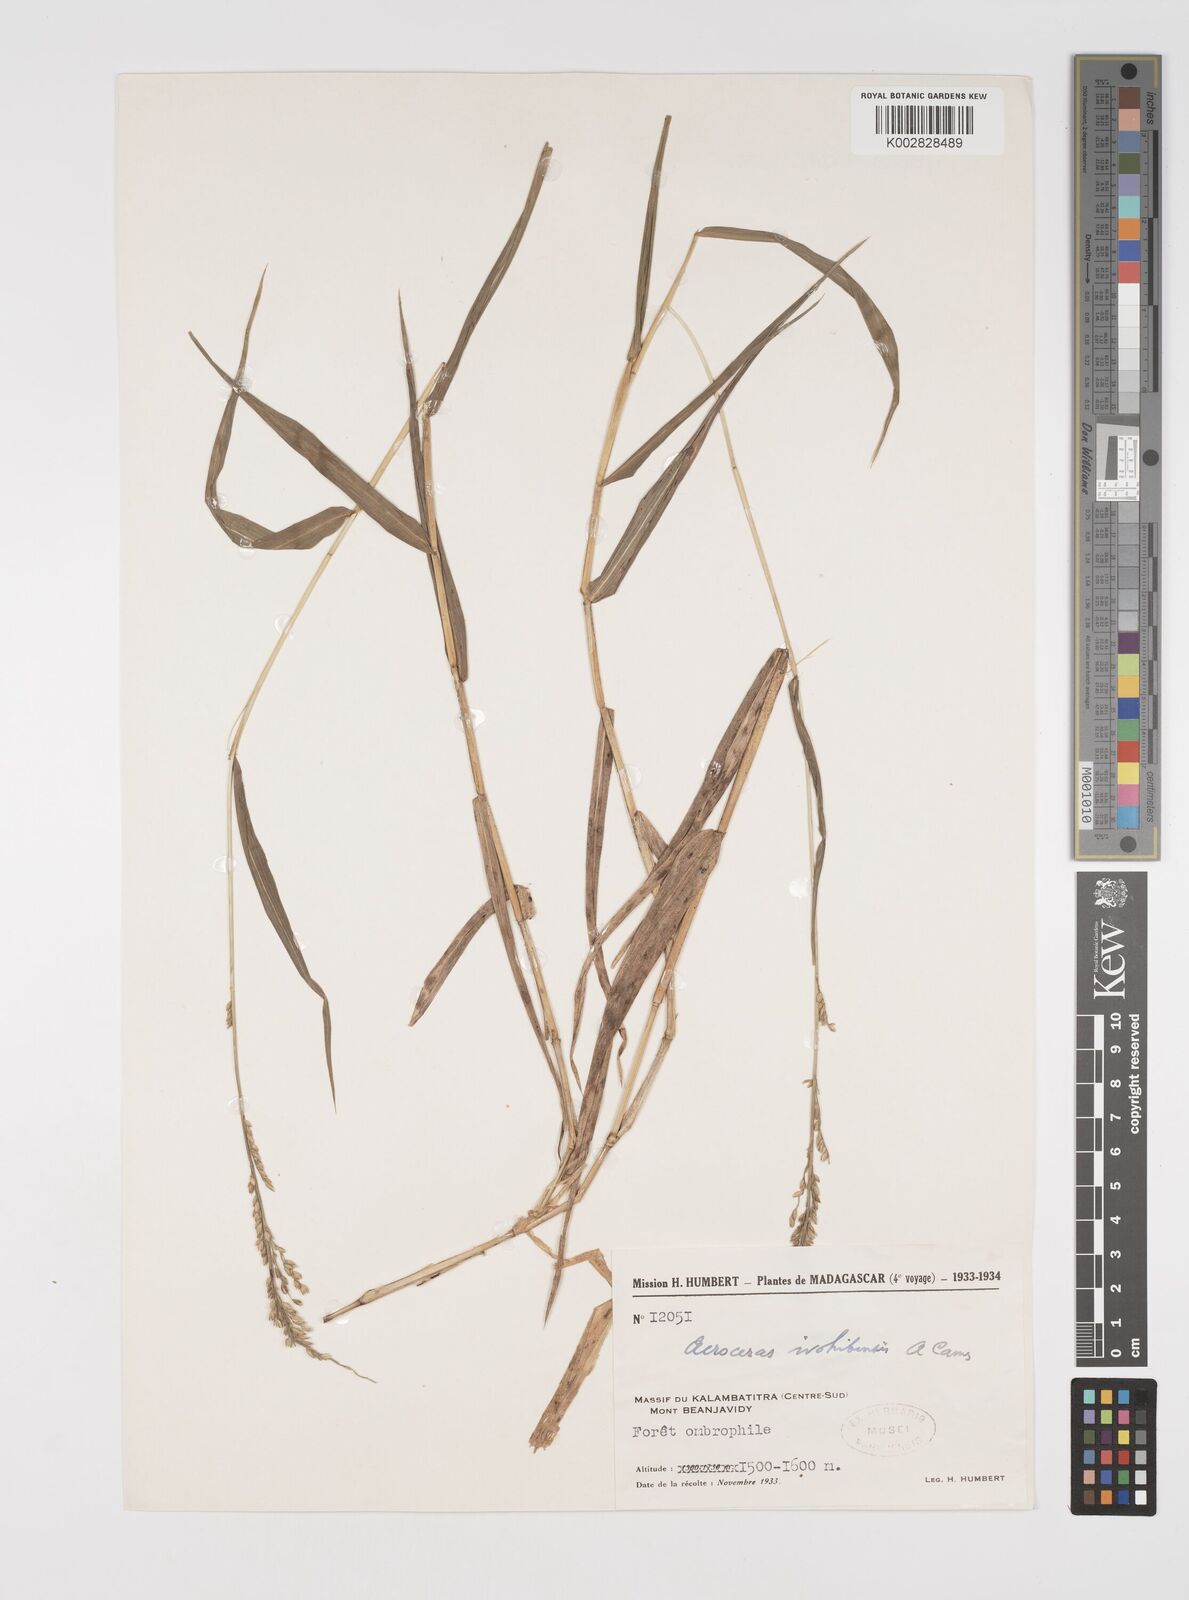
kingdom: Plantae
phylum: Tracheophyta
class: Liliopsida
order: Poales
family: Poaceae
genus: Acroceras
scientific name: Acroceras ivohibense
